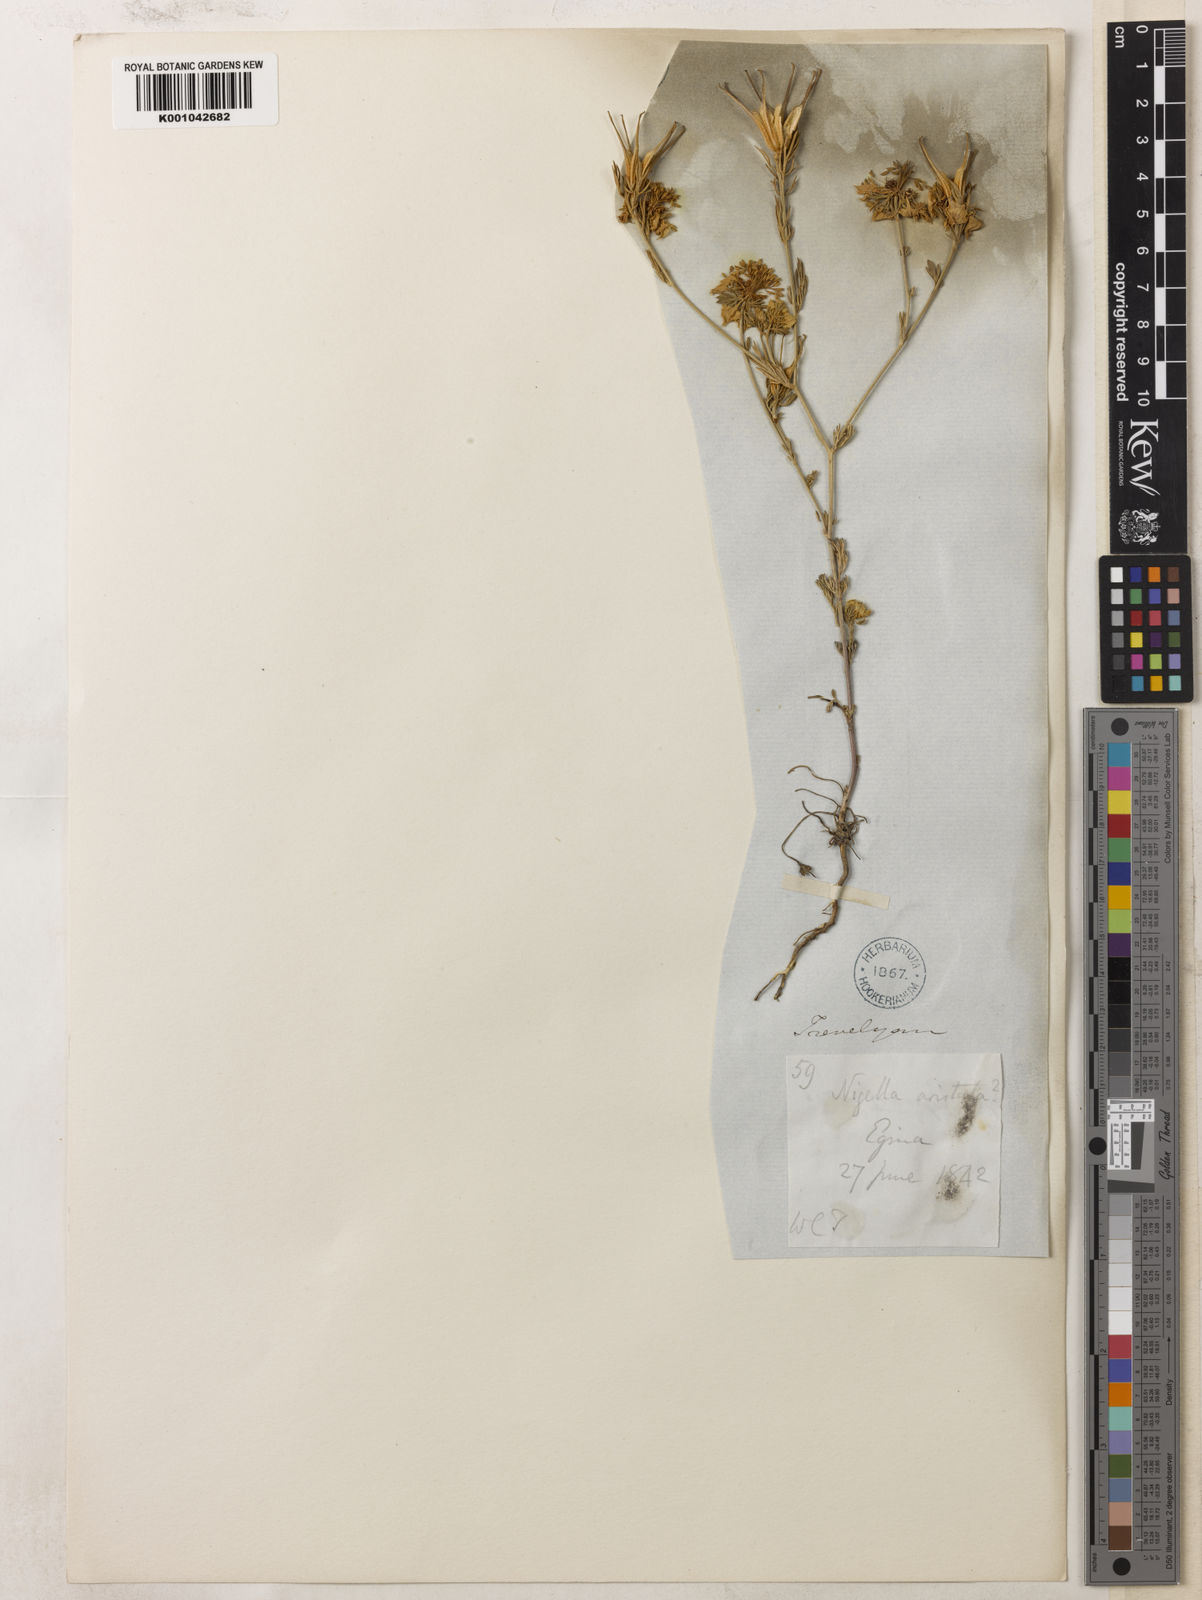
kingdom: Plantae
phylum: Tracheophyta
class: Magnoliopsida
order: Ranunculales
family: Ranunculaceae
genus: Nigella
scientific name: Nigella arvensis
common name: Wild fennel-flower
